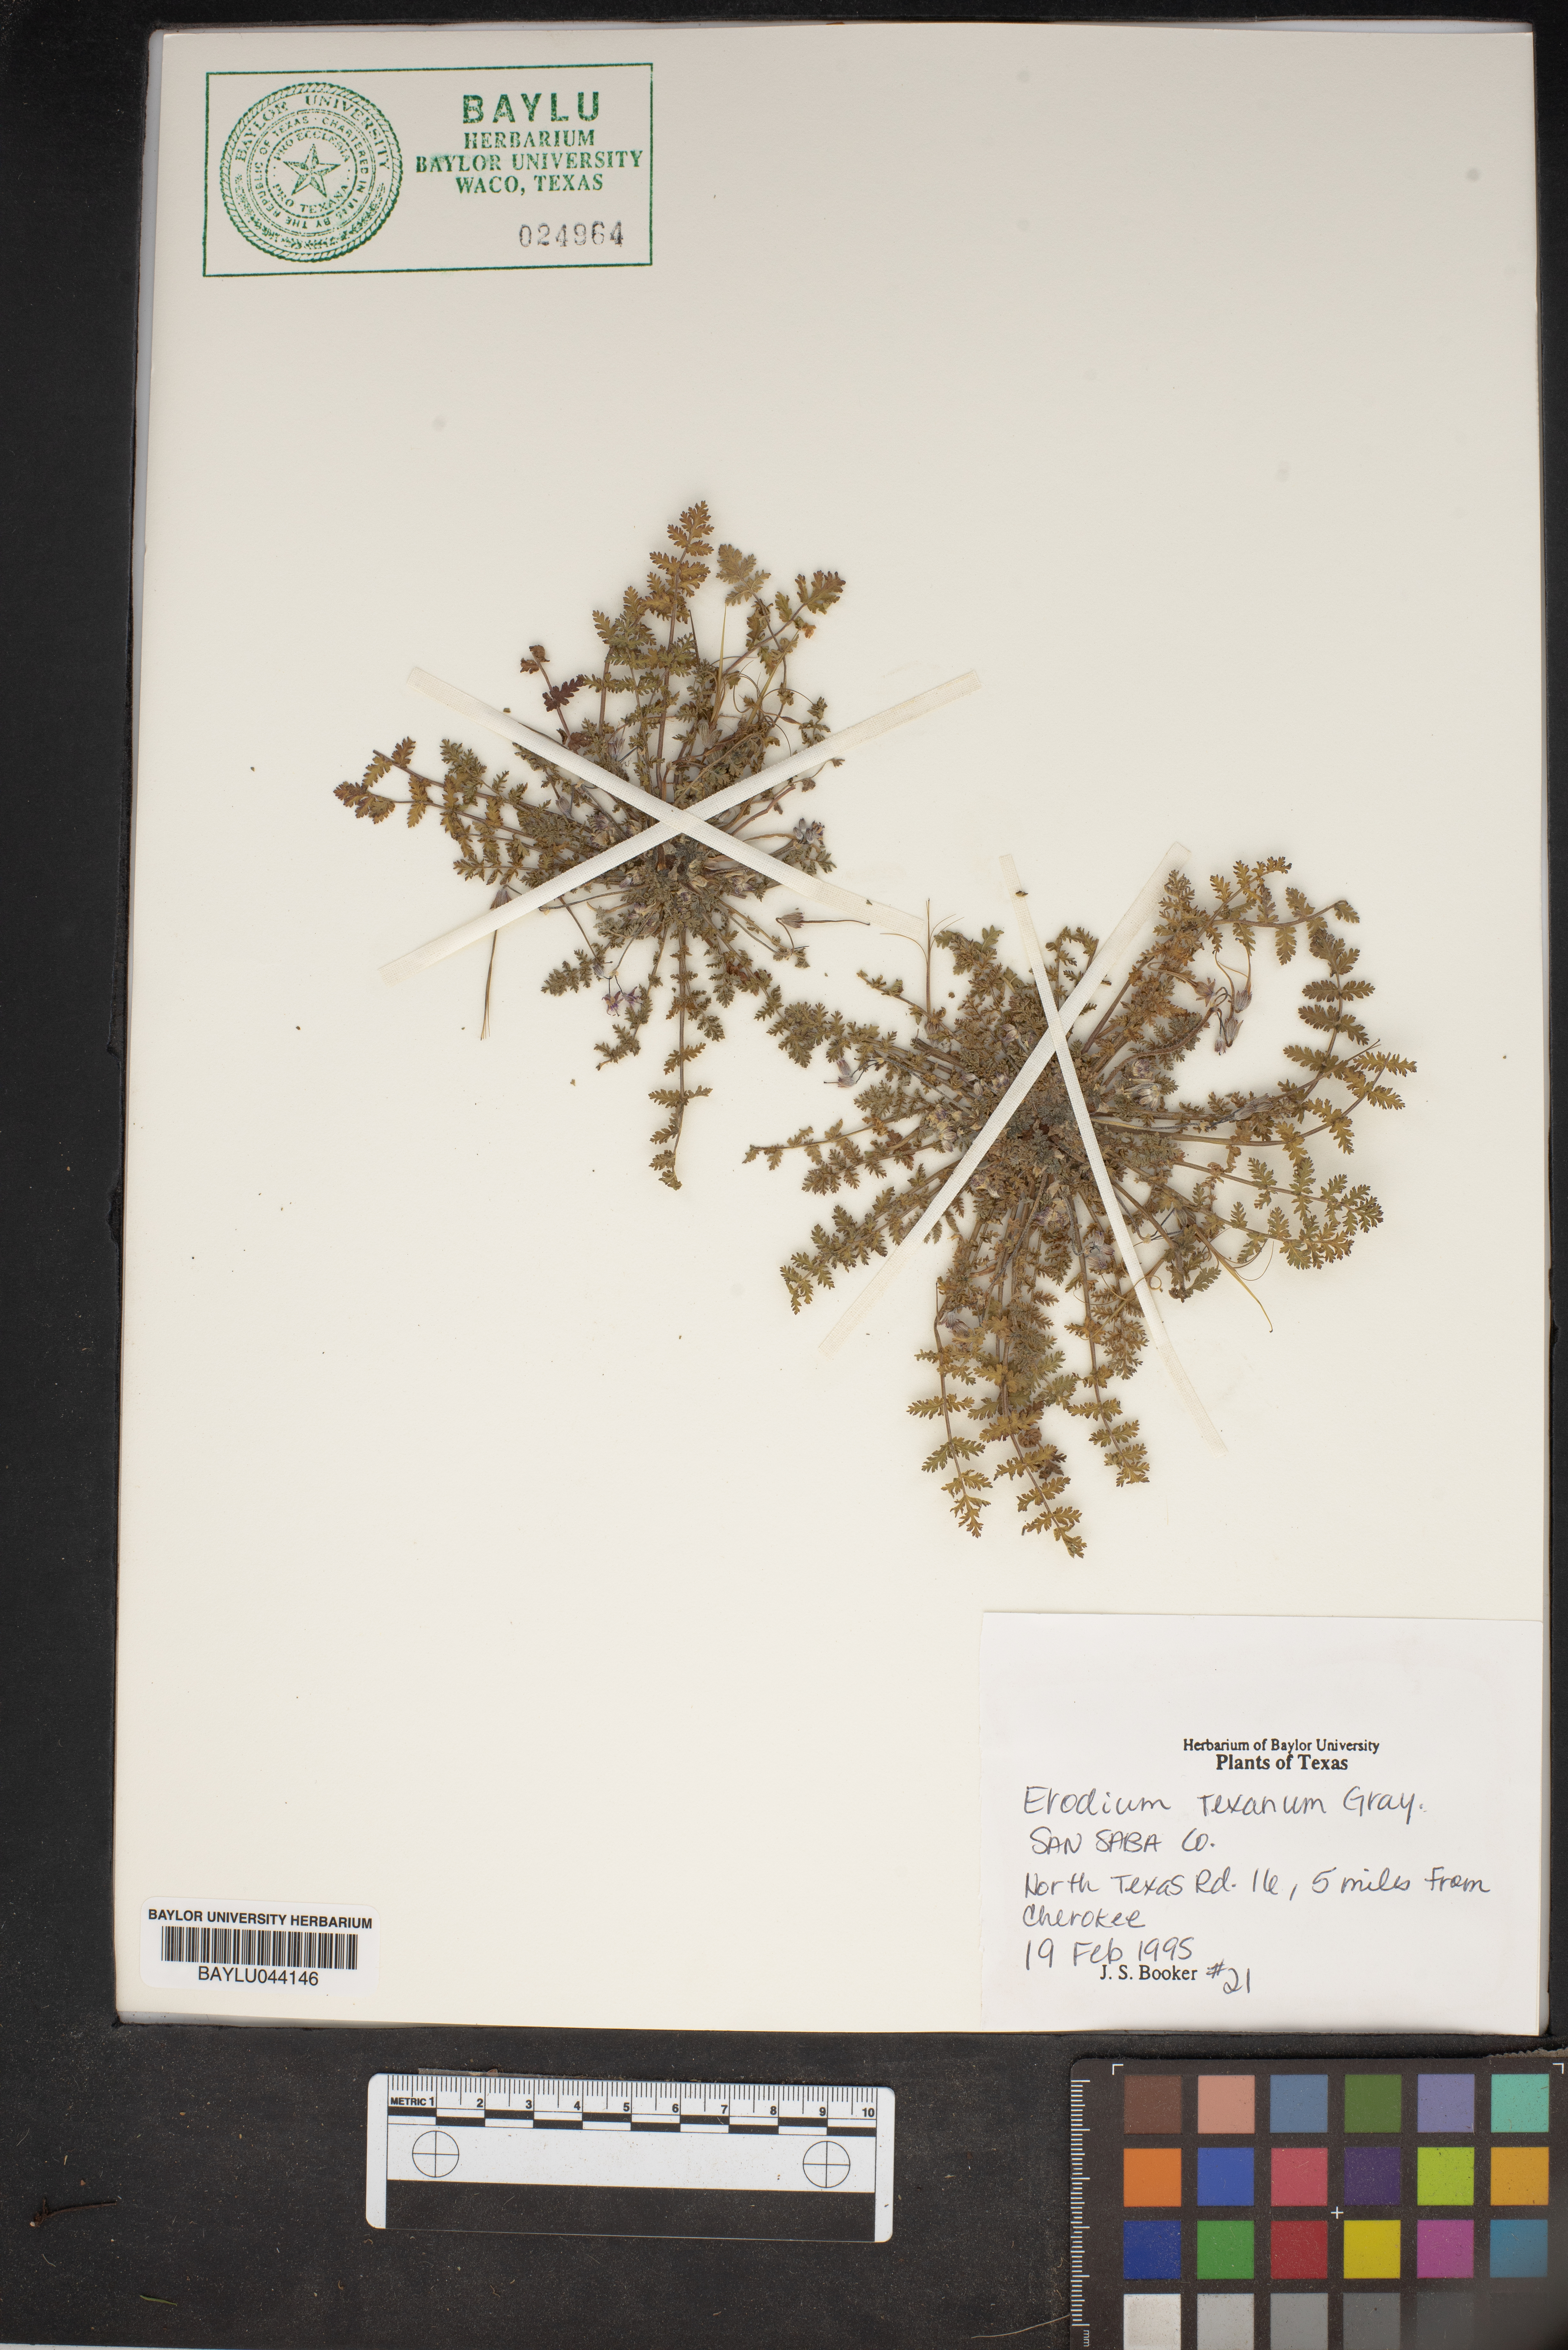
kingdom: Plantae
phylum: Tracheophyta
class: Magnoliopsida
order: Geraniales
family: Geraniaceae
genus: Erodium
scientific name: Erodium texanum
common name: Texas stork's-bill
